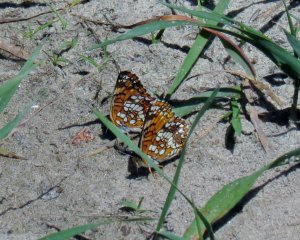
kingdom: Animalia
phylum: Arthropoda
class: Insecta
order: Lepidoptera
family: Nymphalidae
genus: Chlosyne
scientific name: Chlosyne harrisii
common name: Harris's Checkerspot
